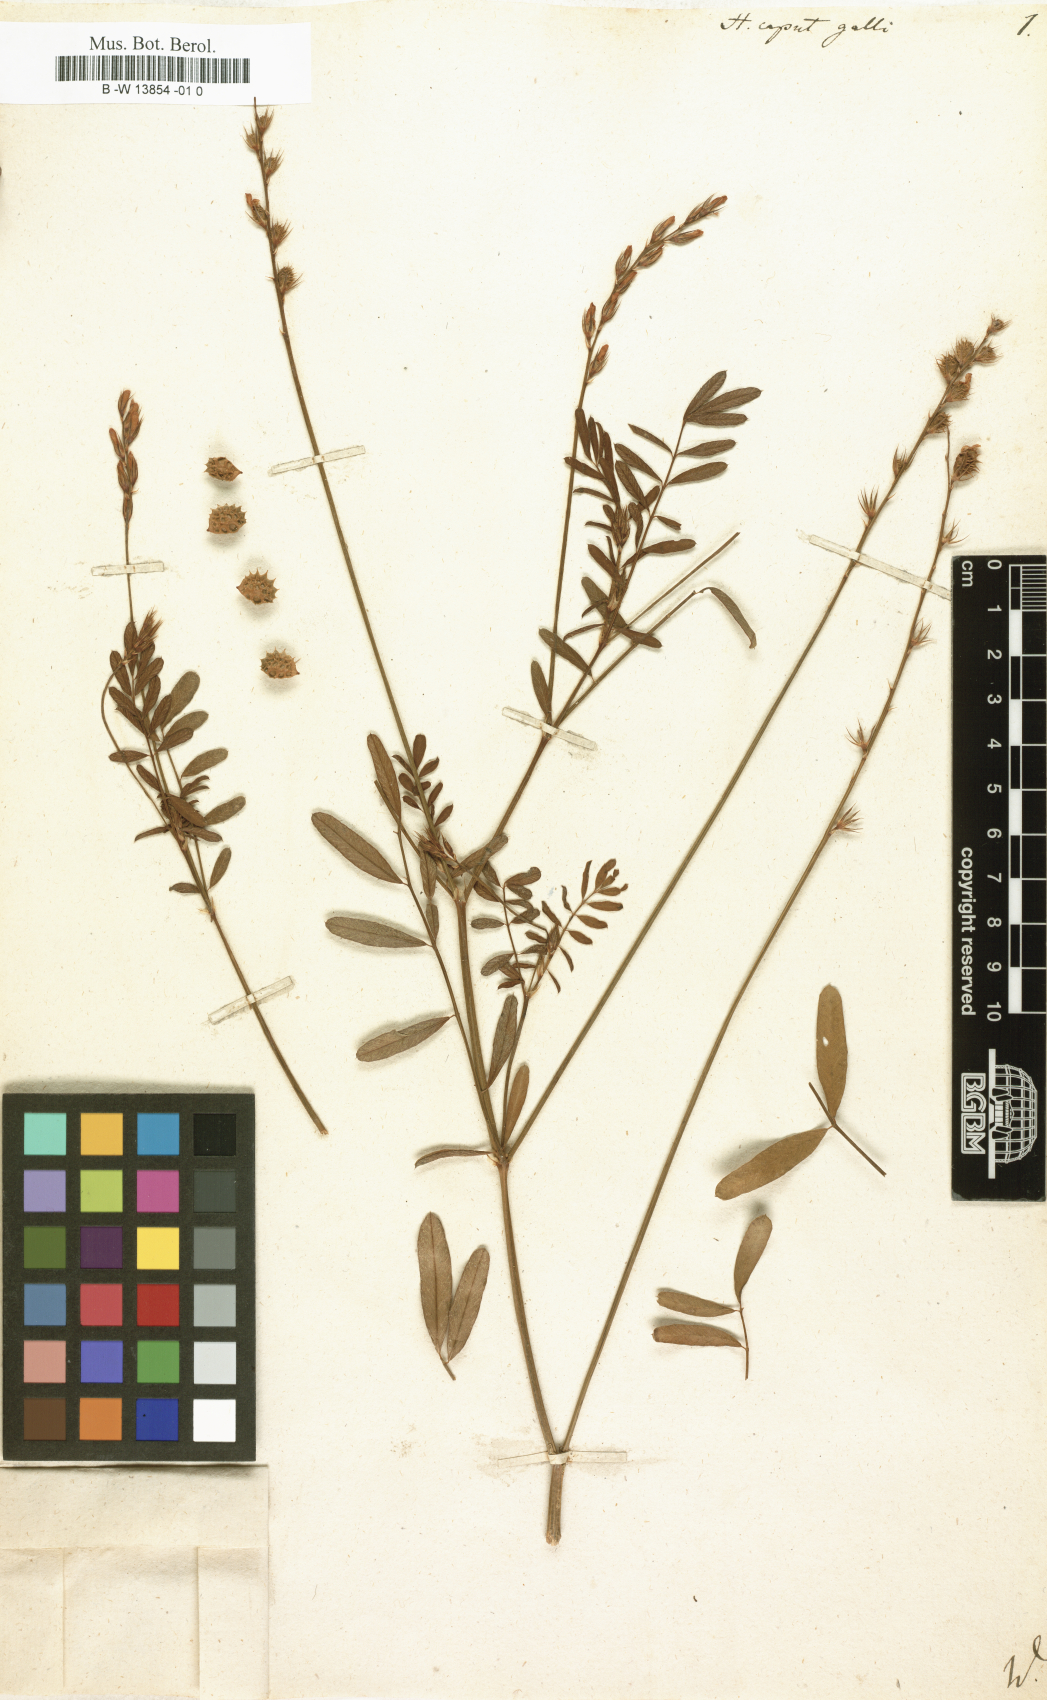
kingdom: Plantae
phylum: Tracheophyta
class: Magnoliopsida
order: Fabales
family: Fabaceae
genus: Onobrychis
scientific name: Onobrychis caput-galli
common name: Cockscomb sainfoin
